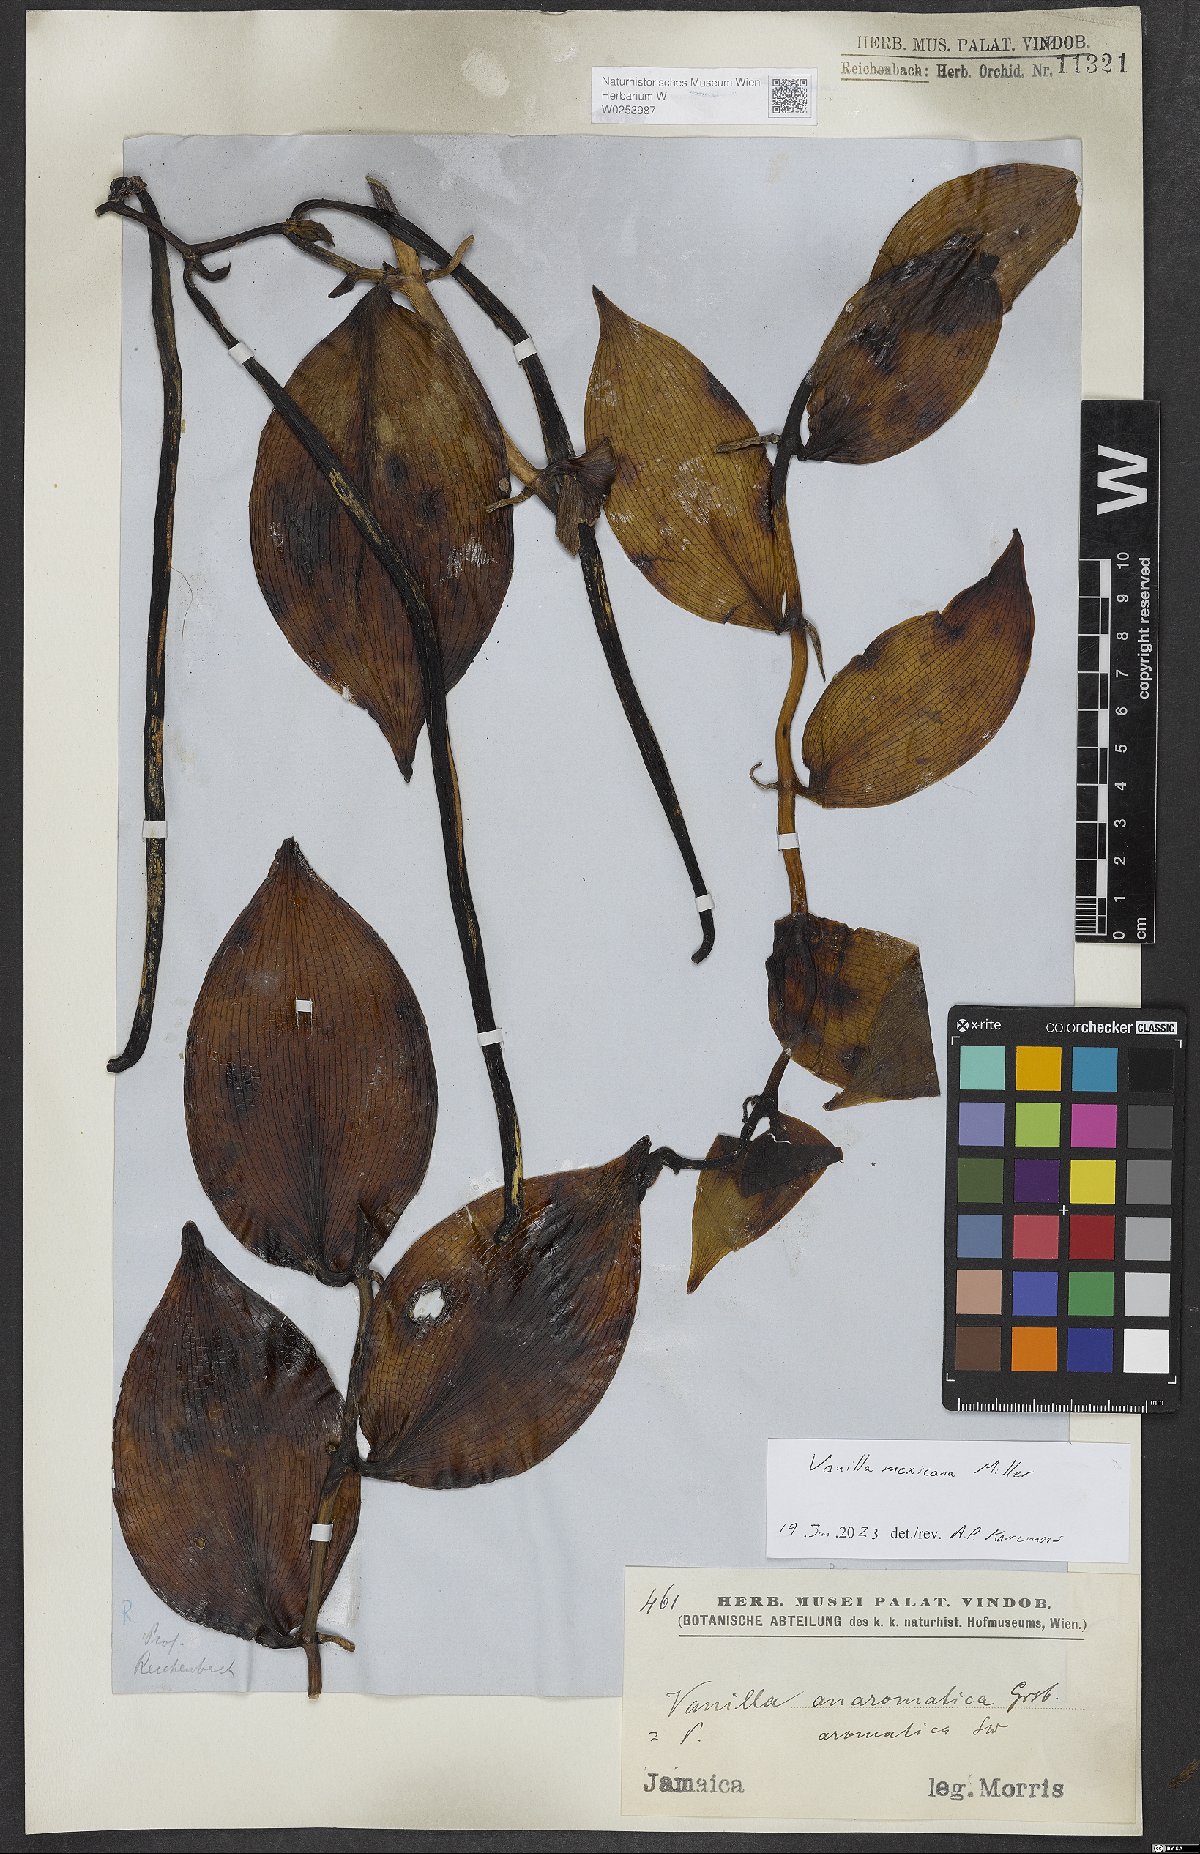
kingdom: Plantae
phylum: Tracheophyta
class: Liliopsida
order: Asparagales
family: Orchidaceae
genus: Vanilla
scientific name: Vanilla mexicana
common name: Mexican vanilla
